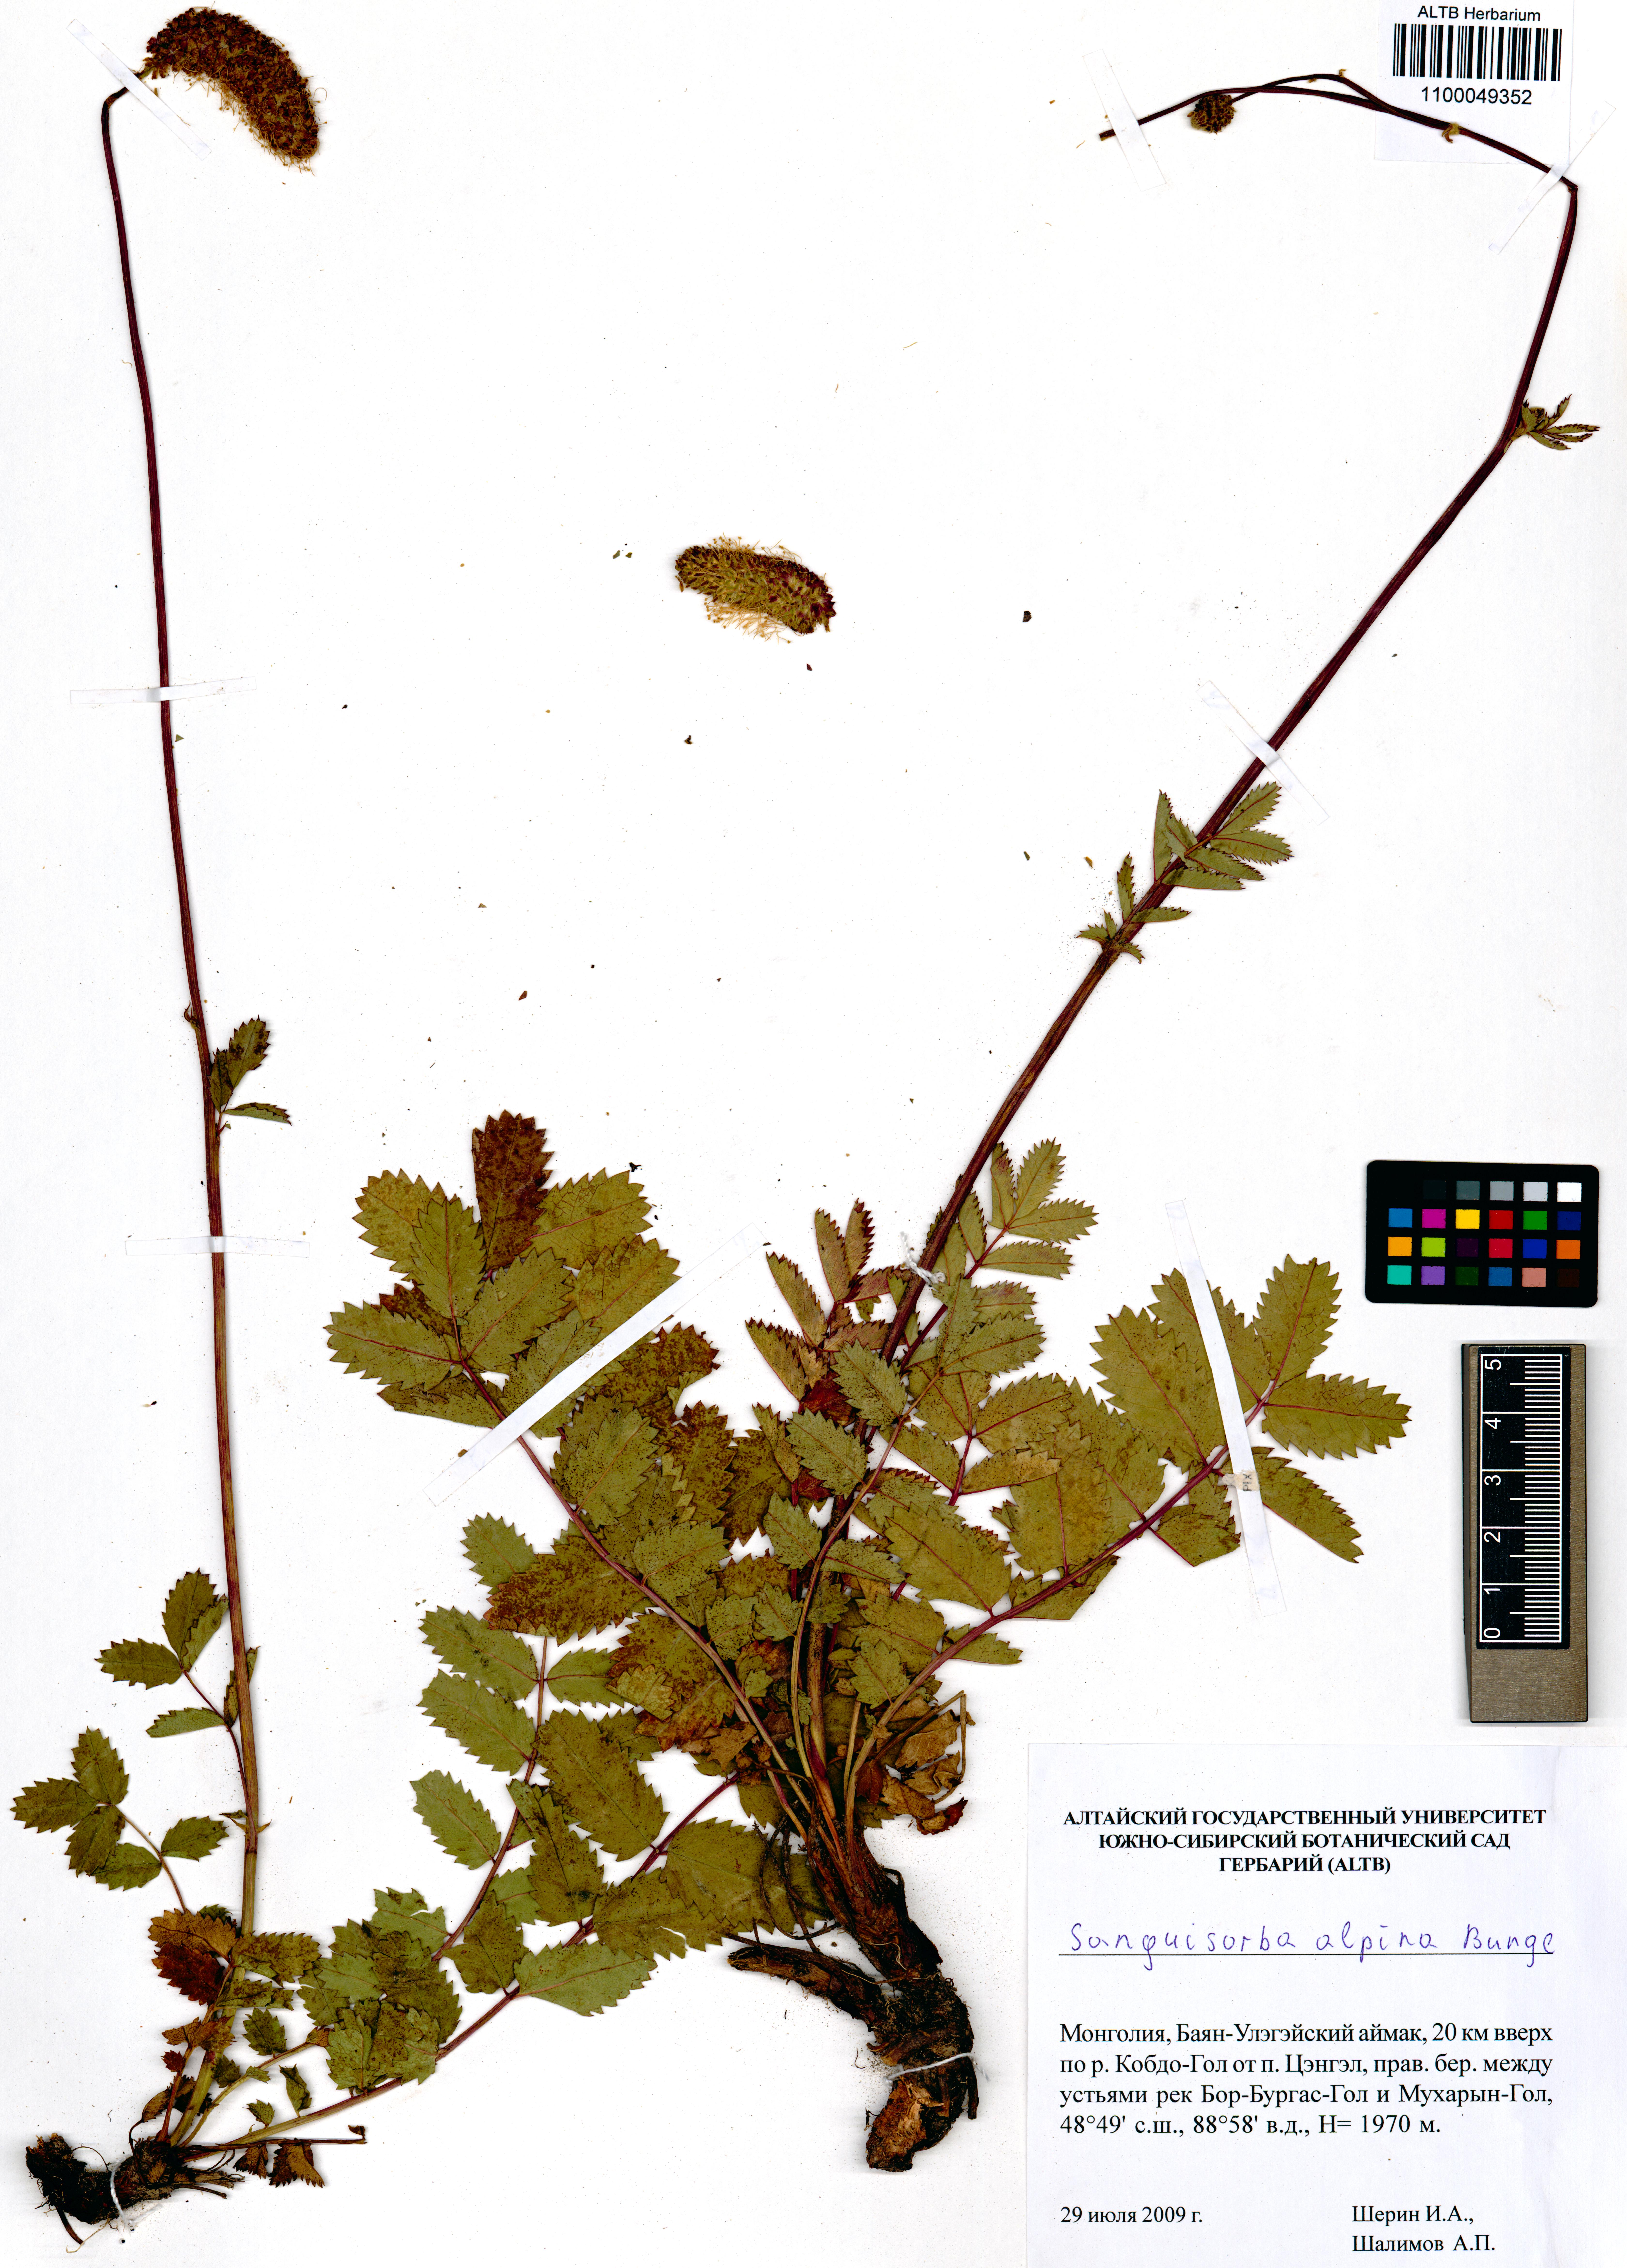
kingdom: Plantae
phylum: Tracheophyta
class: Magnoliopsida
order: Rosales
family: Rosaceae
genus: Sanguisorba
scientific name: Sanguisorba alpina
